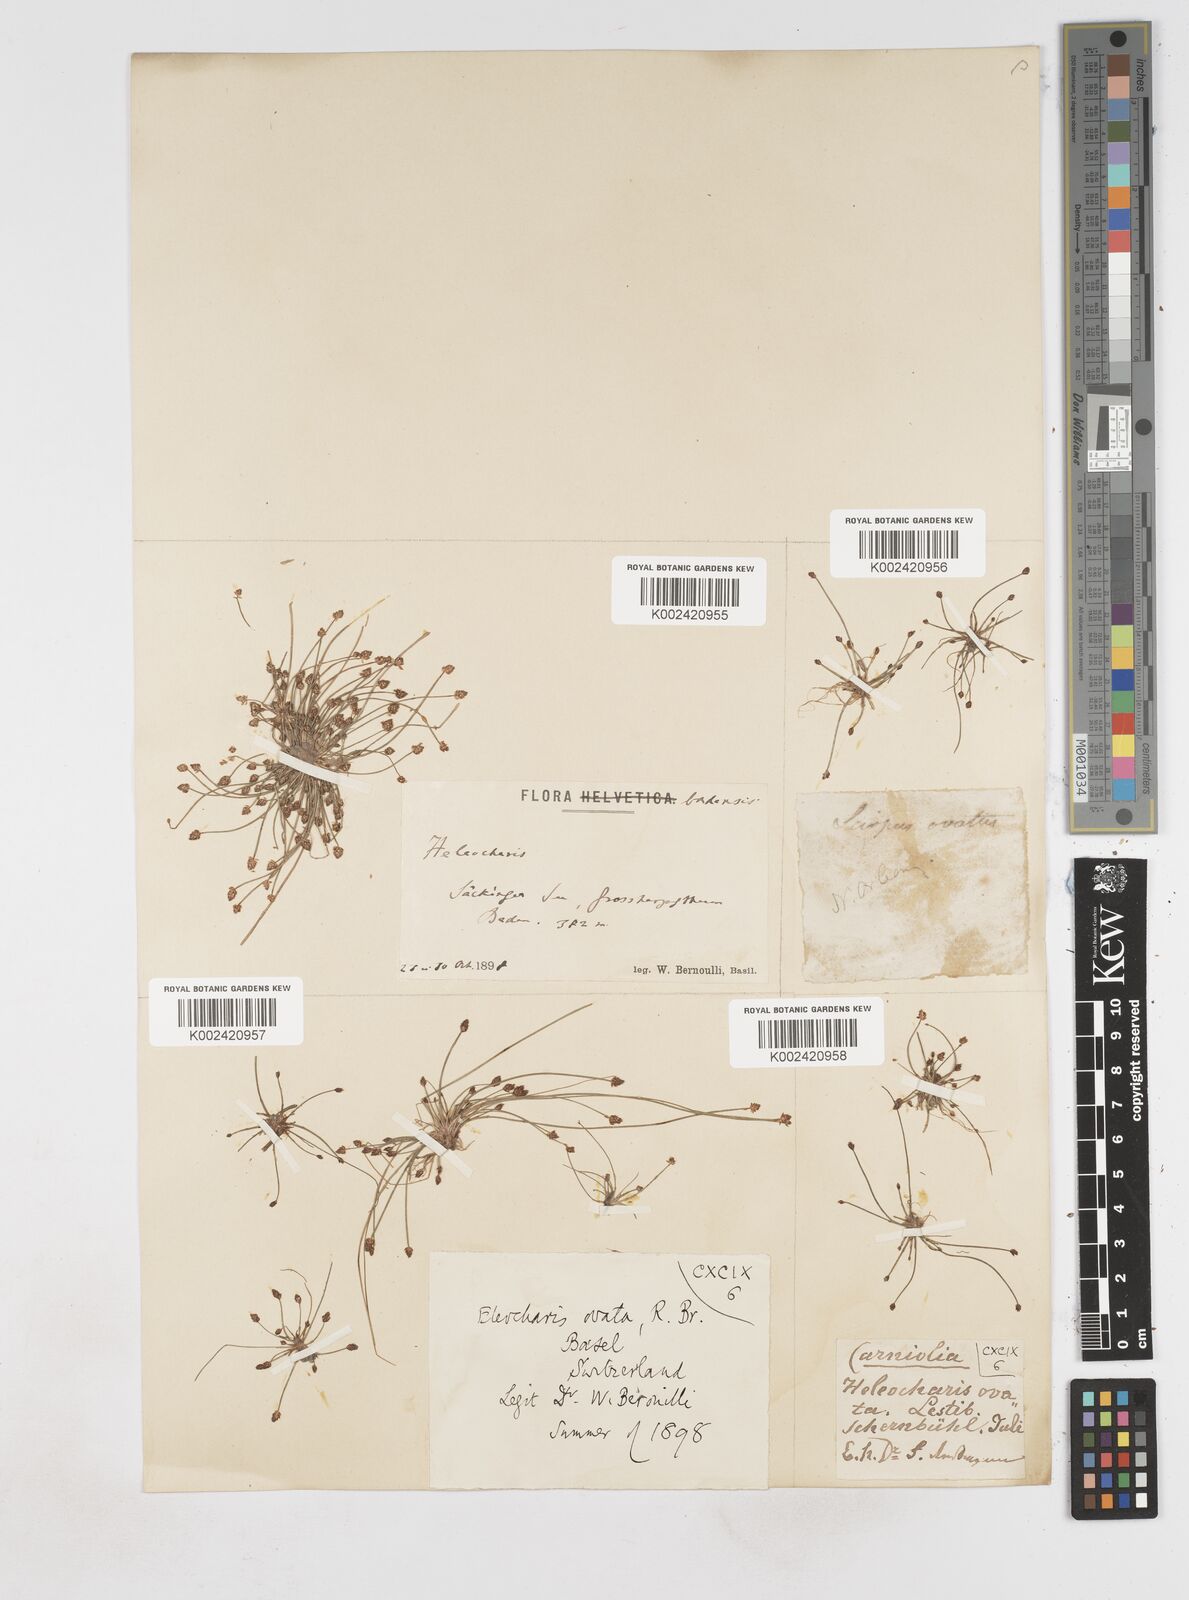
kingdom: Plantae
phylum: Tracheophyta
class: Liliopsida
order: Poales
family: Cyperaceae
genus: Eleocharis
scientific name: Eleocharis ovata
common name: Oval spike-rush
